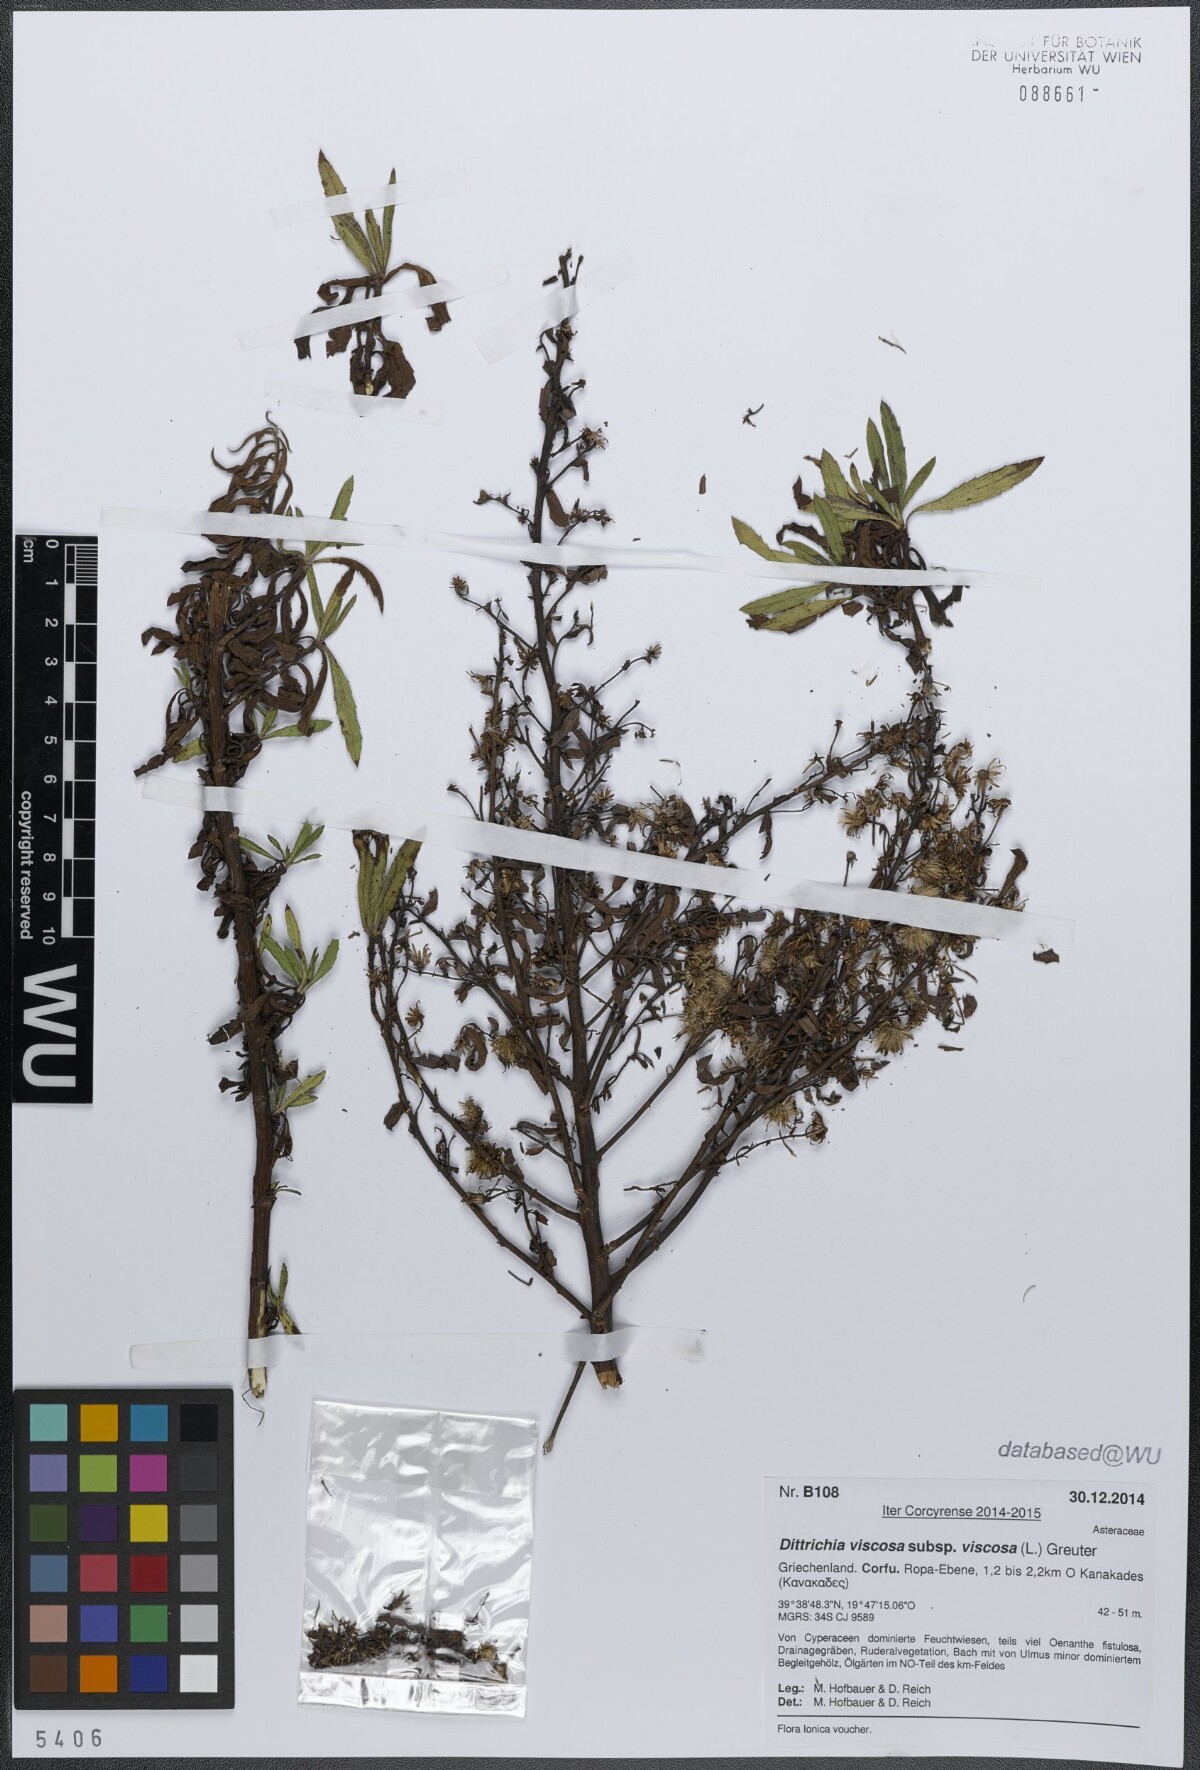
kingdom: Plantae
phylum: Tracheophyta
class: Magnoliopsida
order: Asterales
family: Asteraceae
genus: Dittrichia
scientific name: Dittrichia viscosa
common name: Woody fleabane
